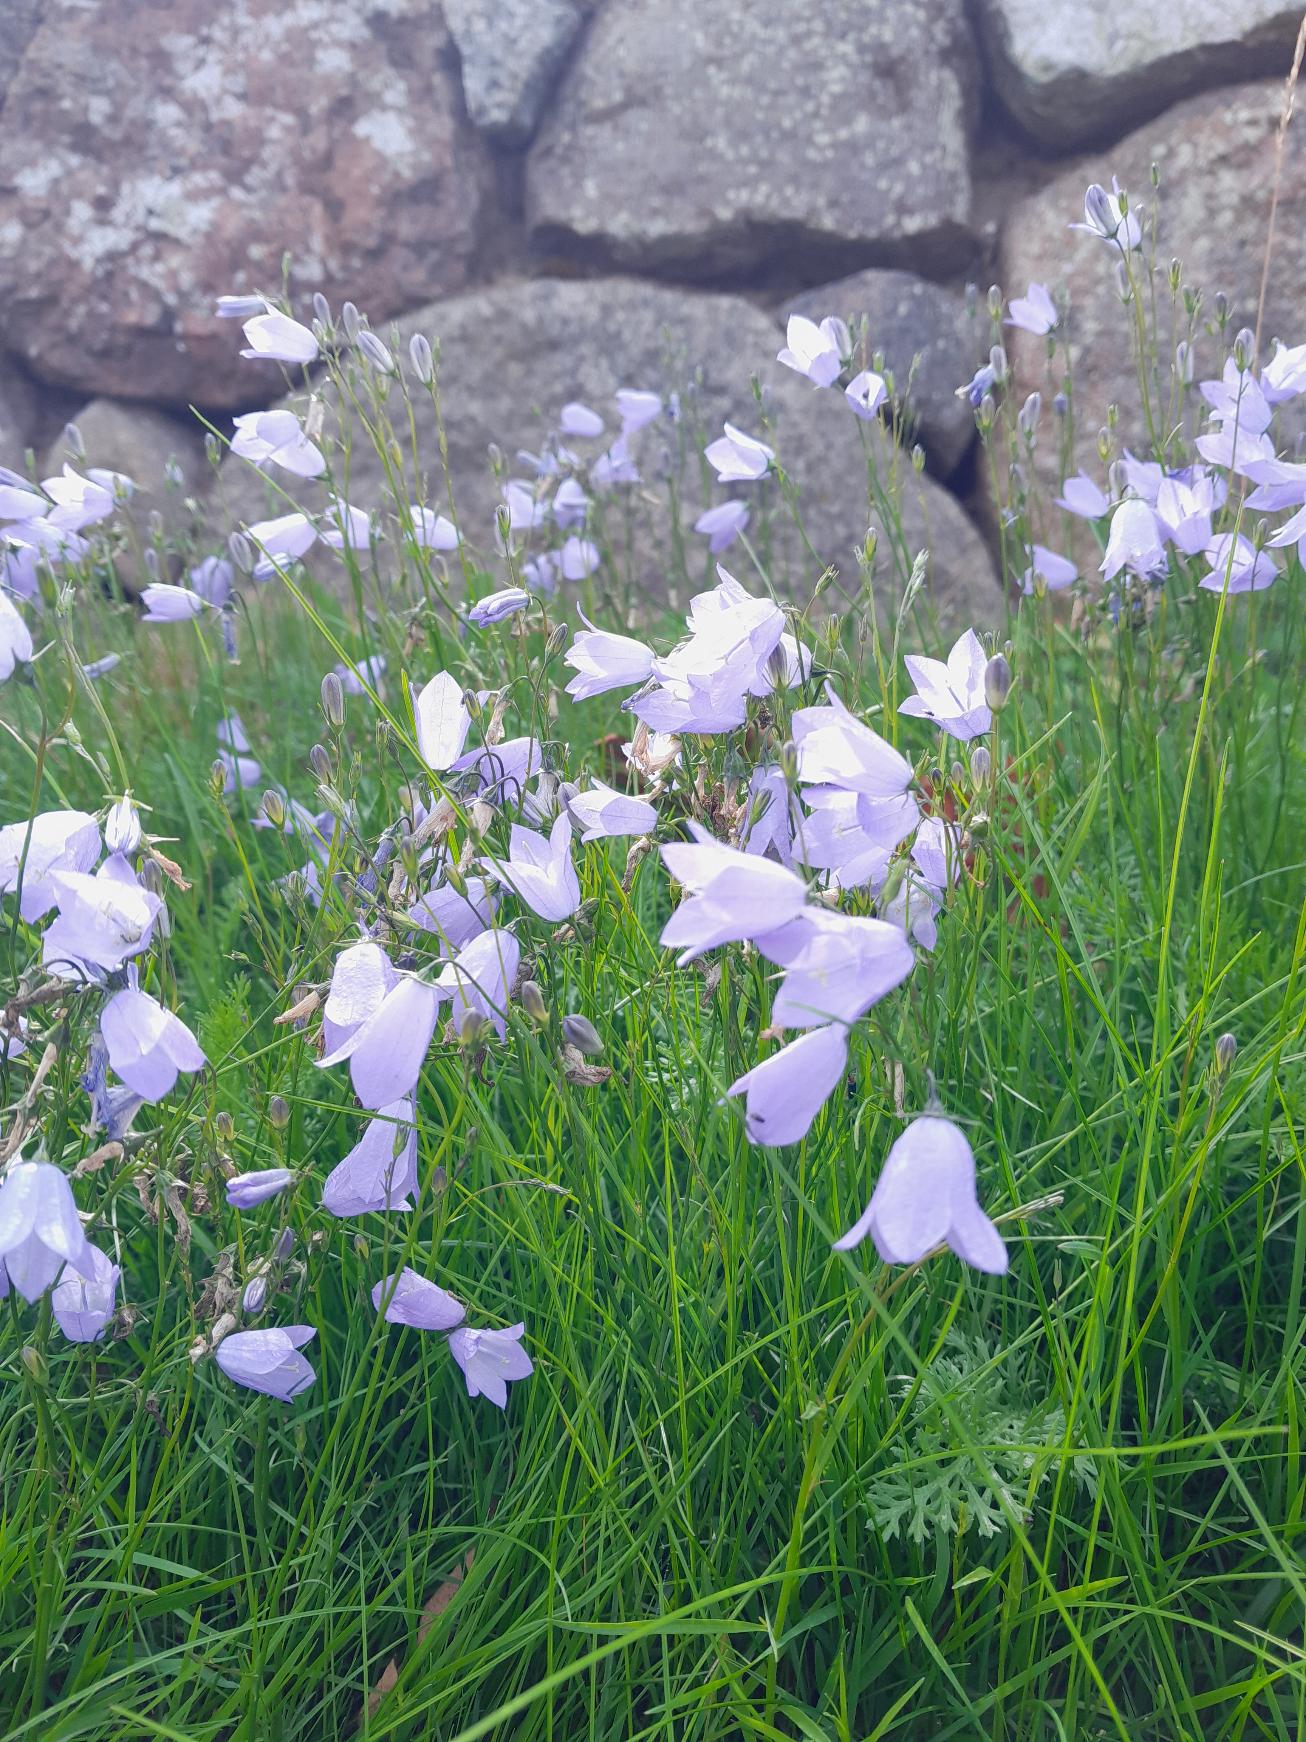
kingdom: Plantae
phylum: Tracheophyta
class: Magnoliopsida
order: Asterales
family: Campanulaceae
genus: Campanula
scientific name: Campanula rotundifolia
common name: Liden klokke
